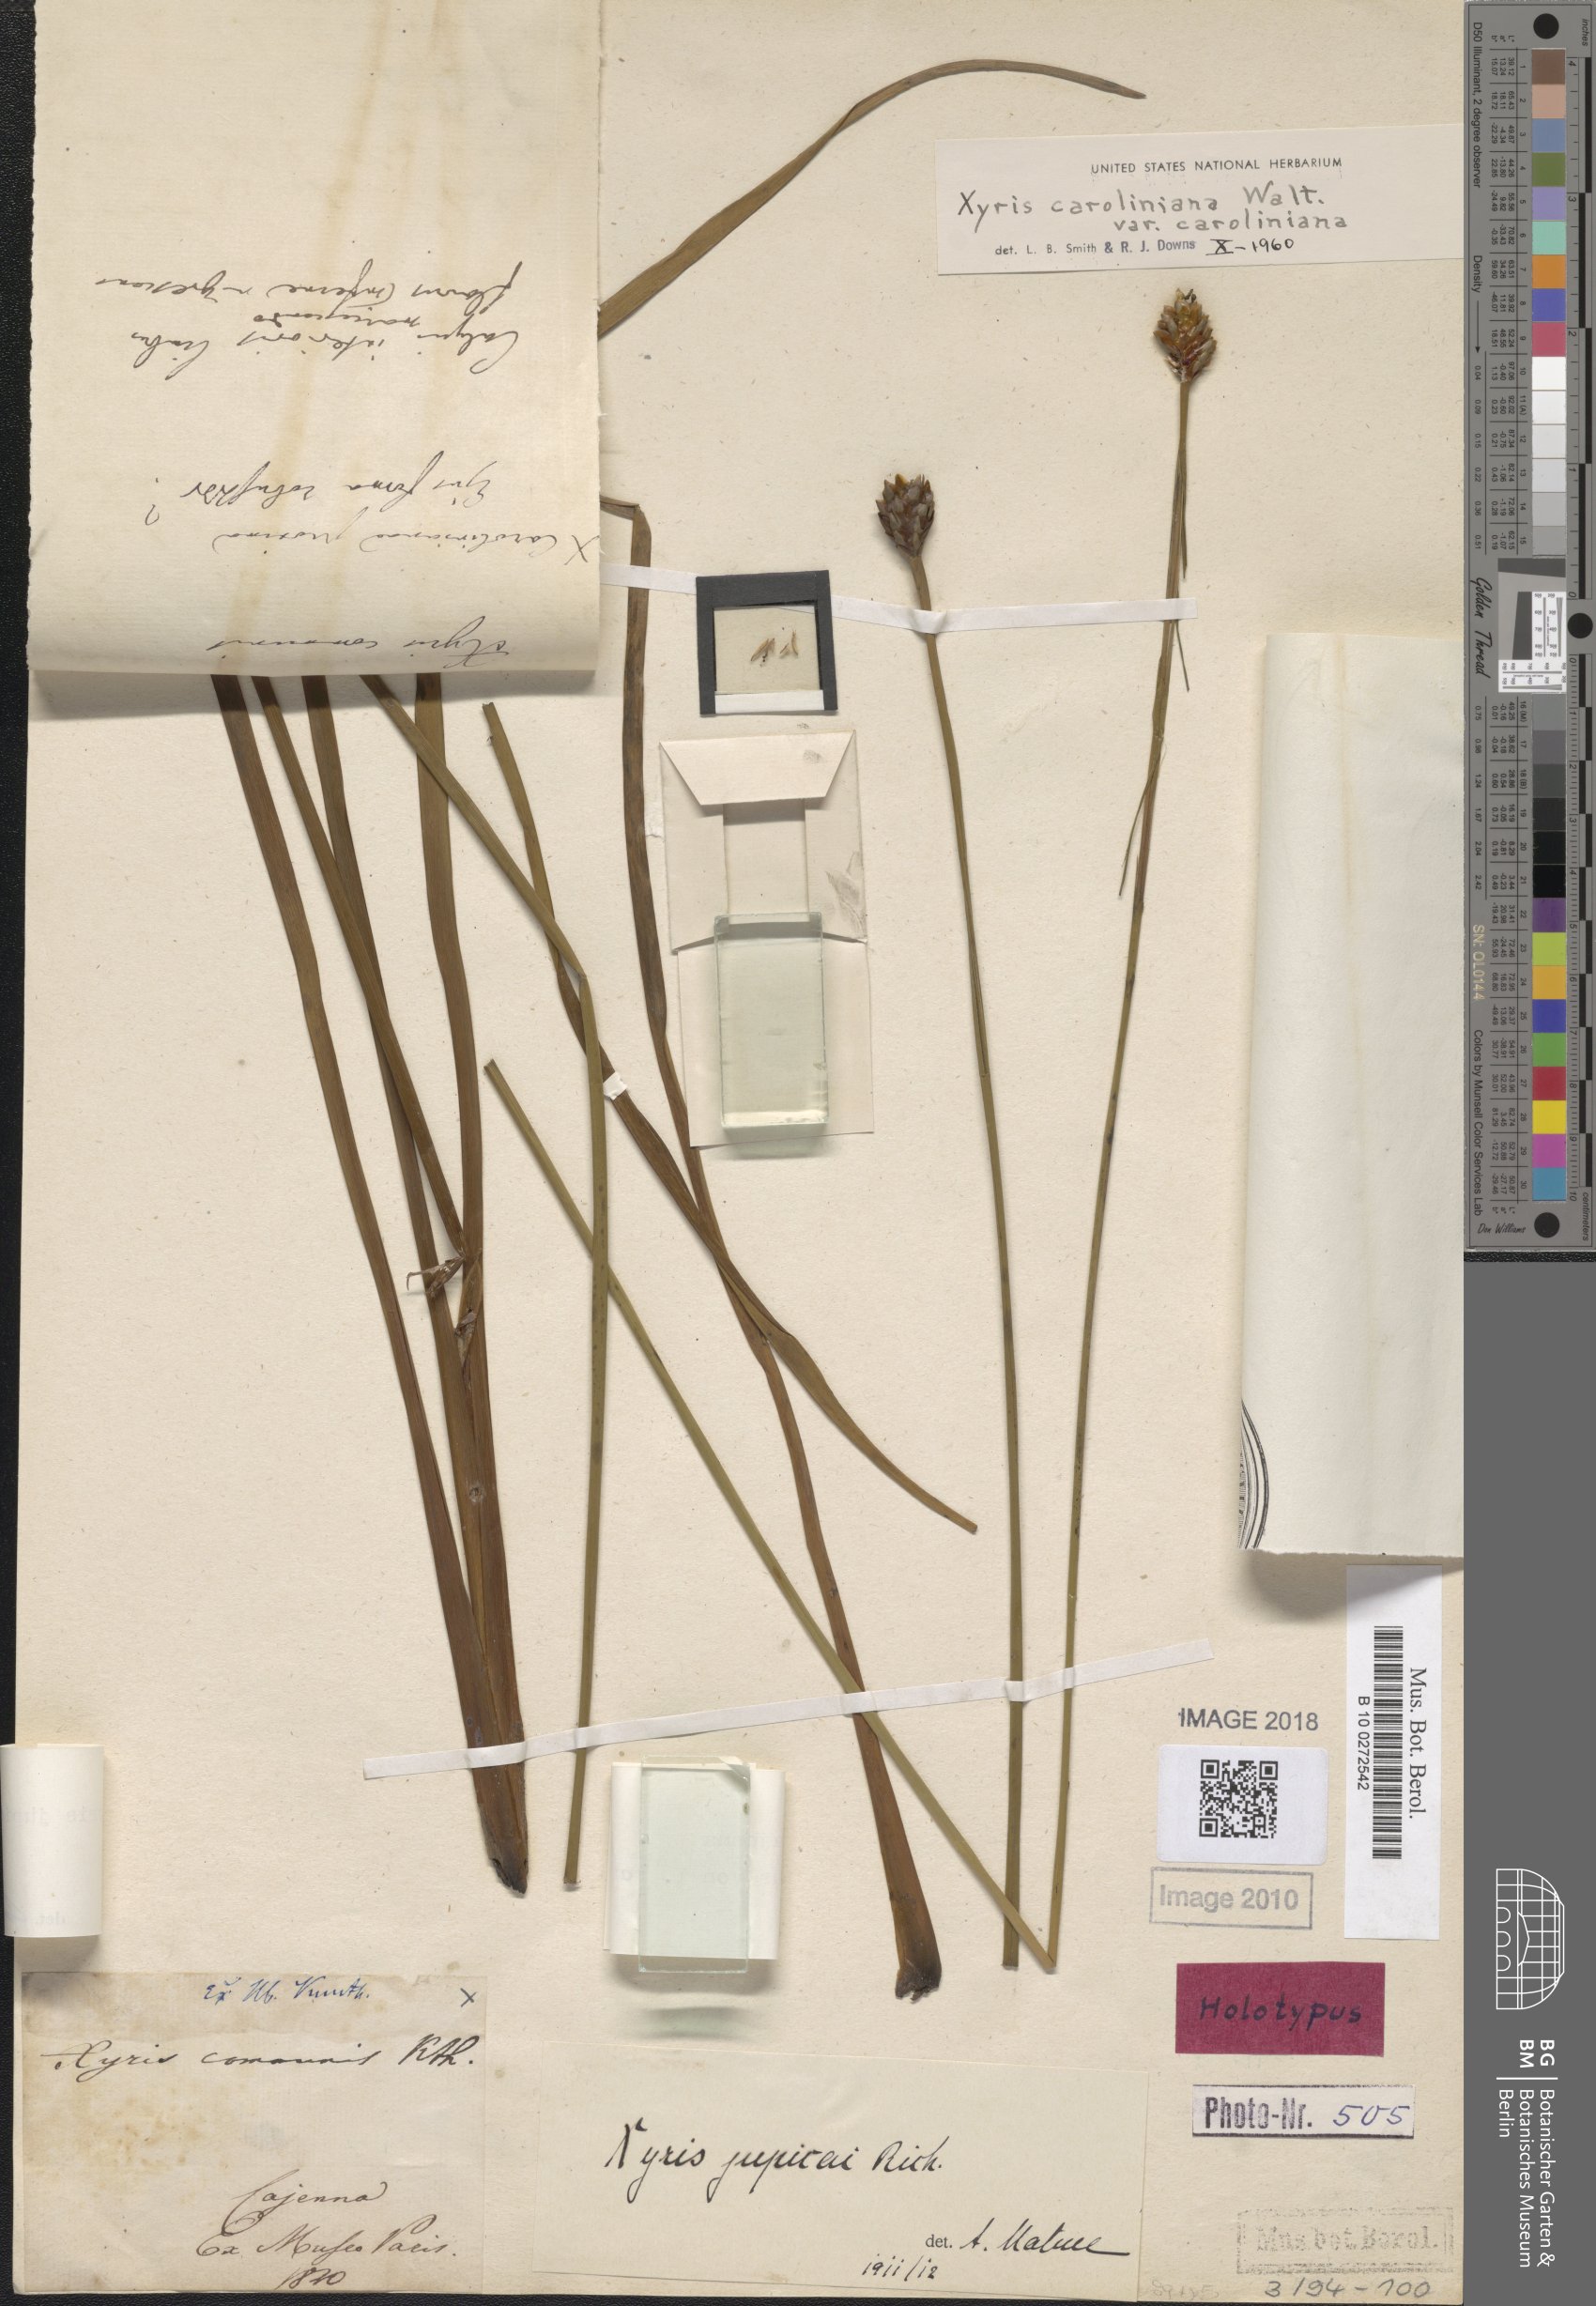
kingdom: Plantae
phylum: Tracheophyta
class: Liliopsida
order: Poales
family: Xyridaceae
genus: Xyris
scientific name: Xyris jupicai
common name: Richard's yelloweyed grass
